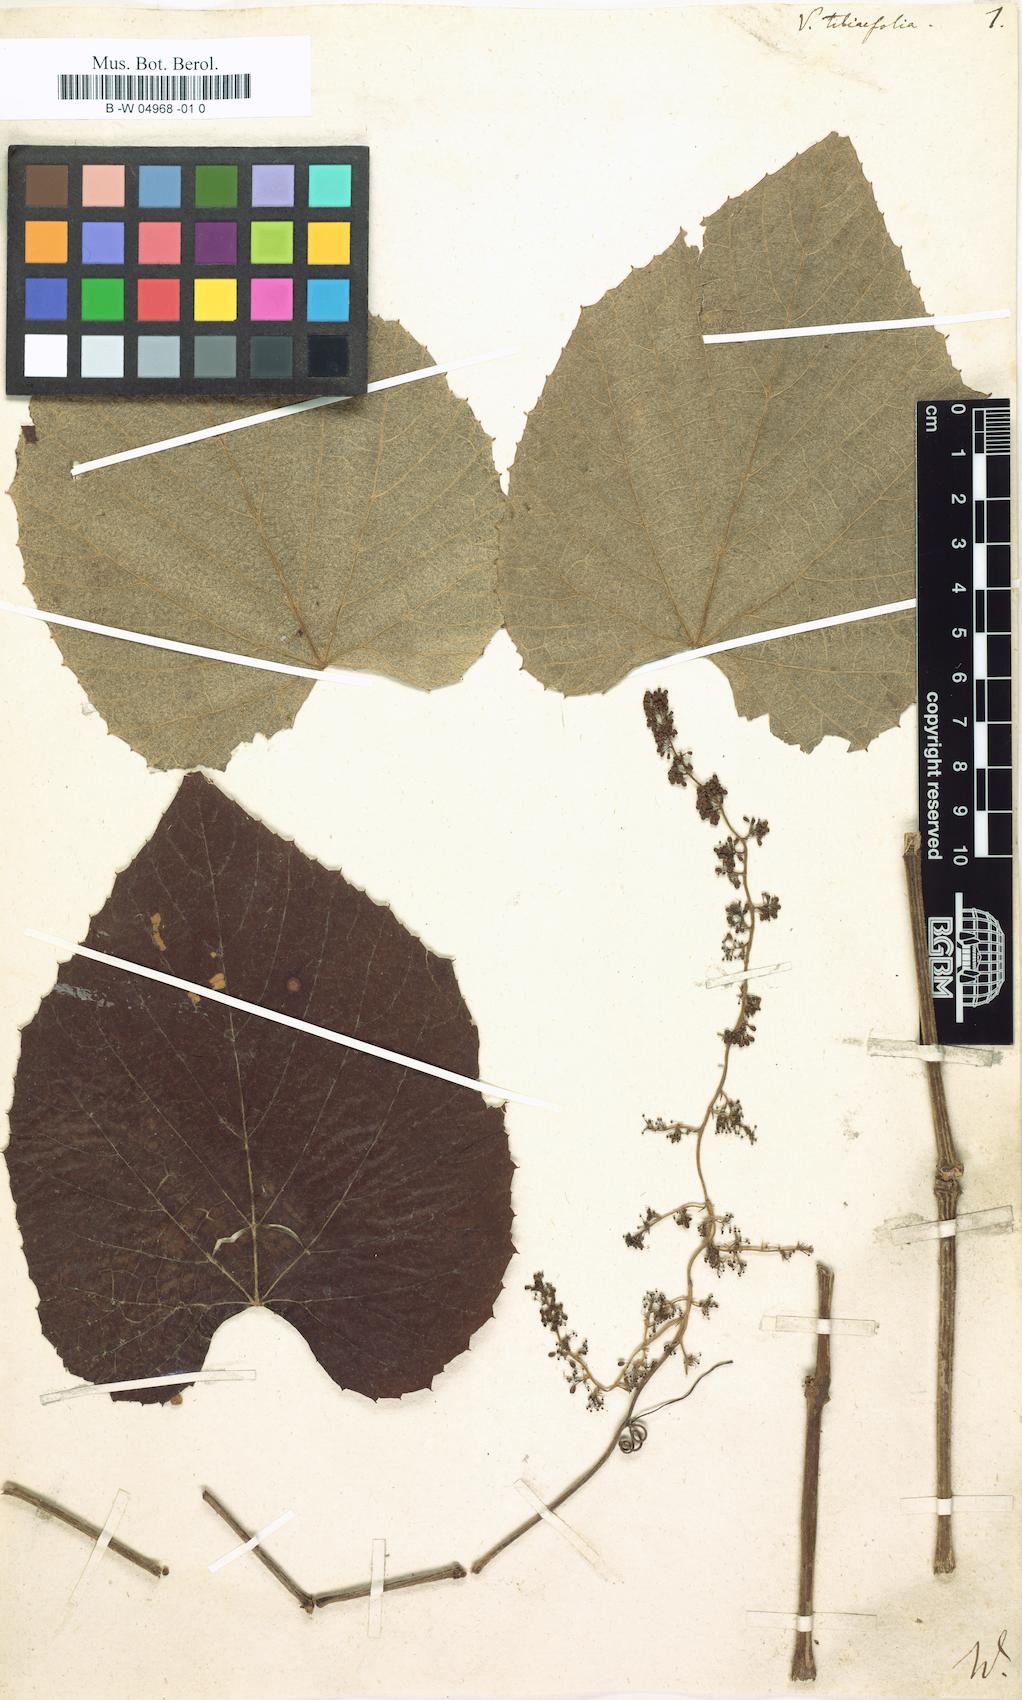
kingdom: Plantae
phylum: Tracheophyta
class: Magnoliopsida
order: Vitales
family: Vitaceae
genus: Vitis
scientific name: Vitis tiliifolia
